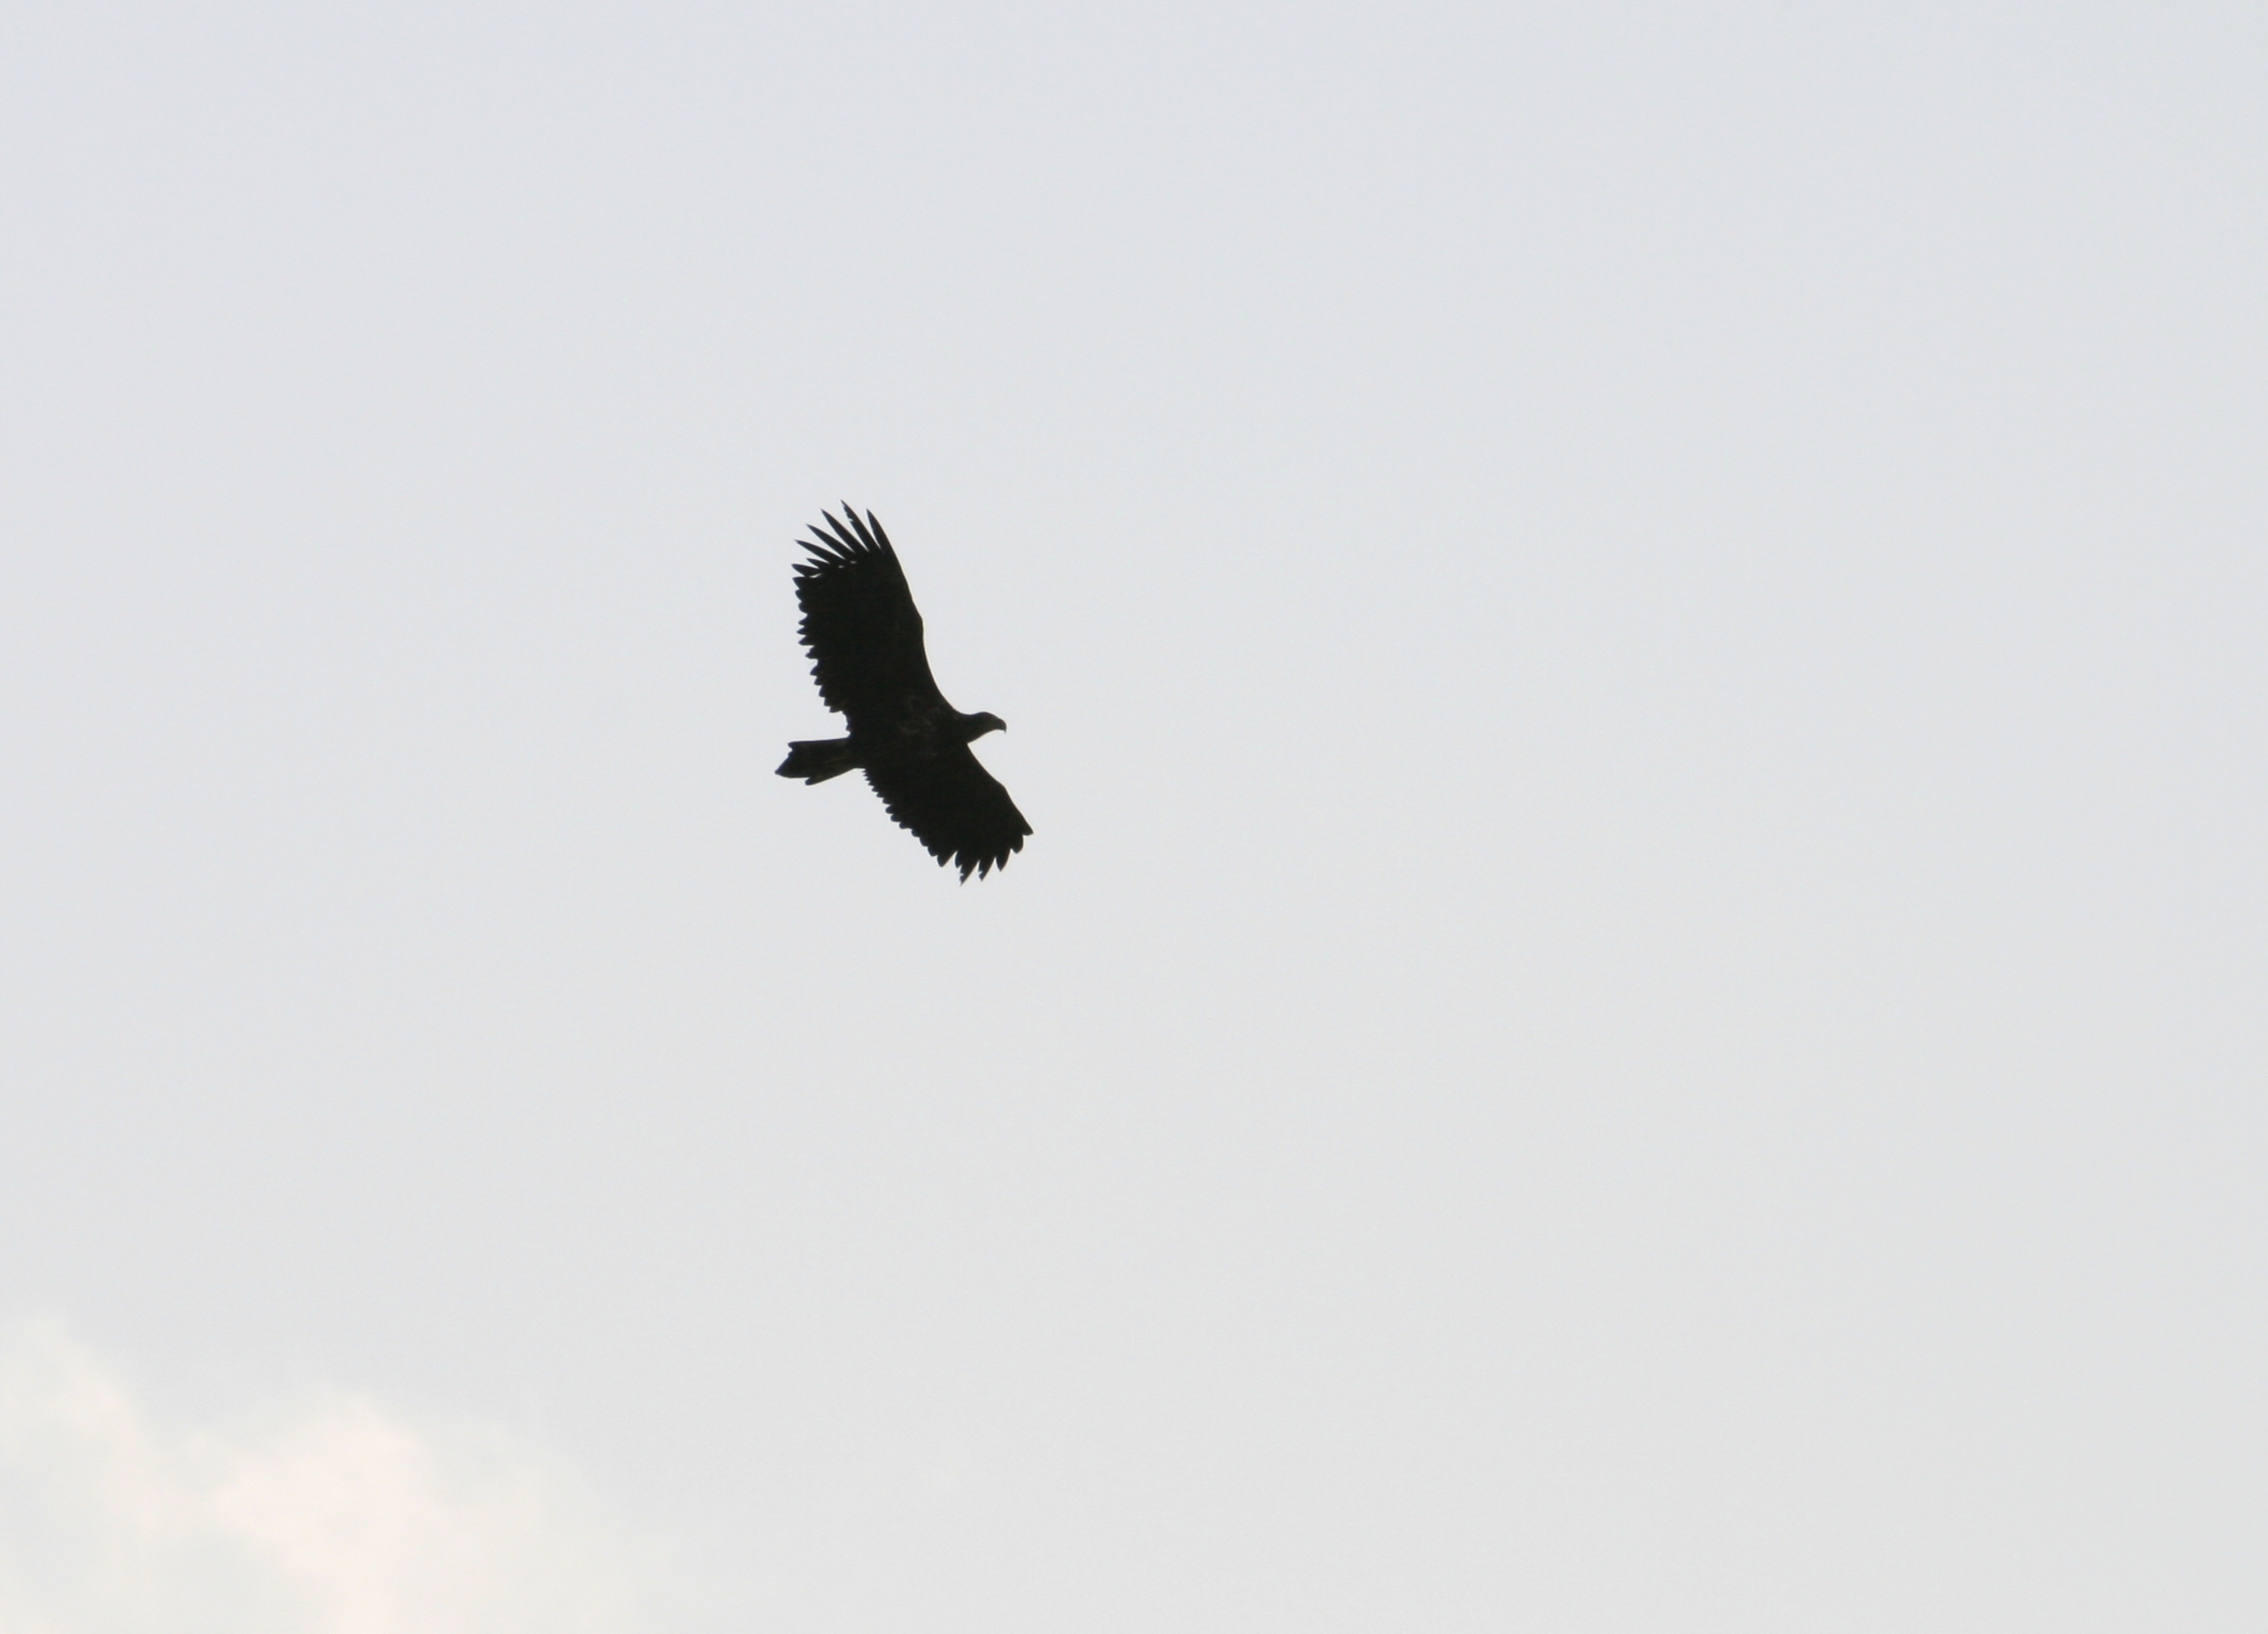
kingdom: Animalia
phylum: Chordata
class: Aves
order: Accipitriformes
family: Accipitridae
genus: Haliaeetus
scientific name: Haliaeetus albicilla
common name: Havørn
